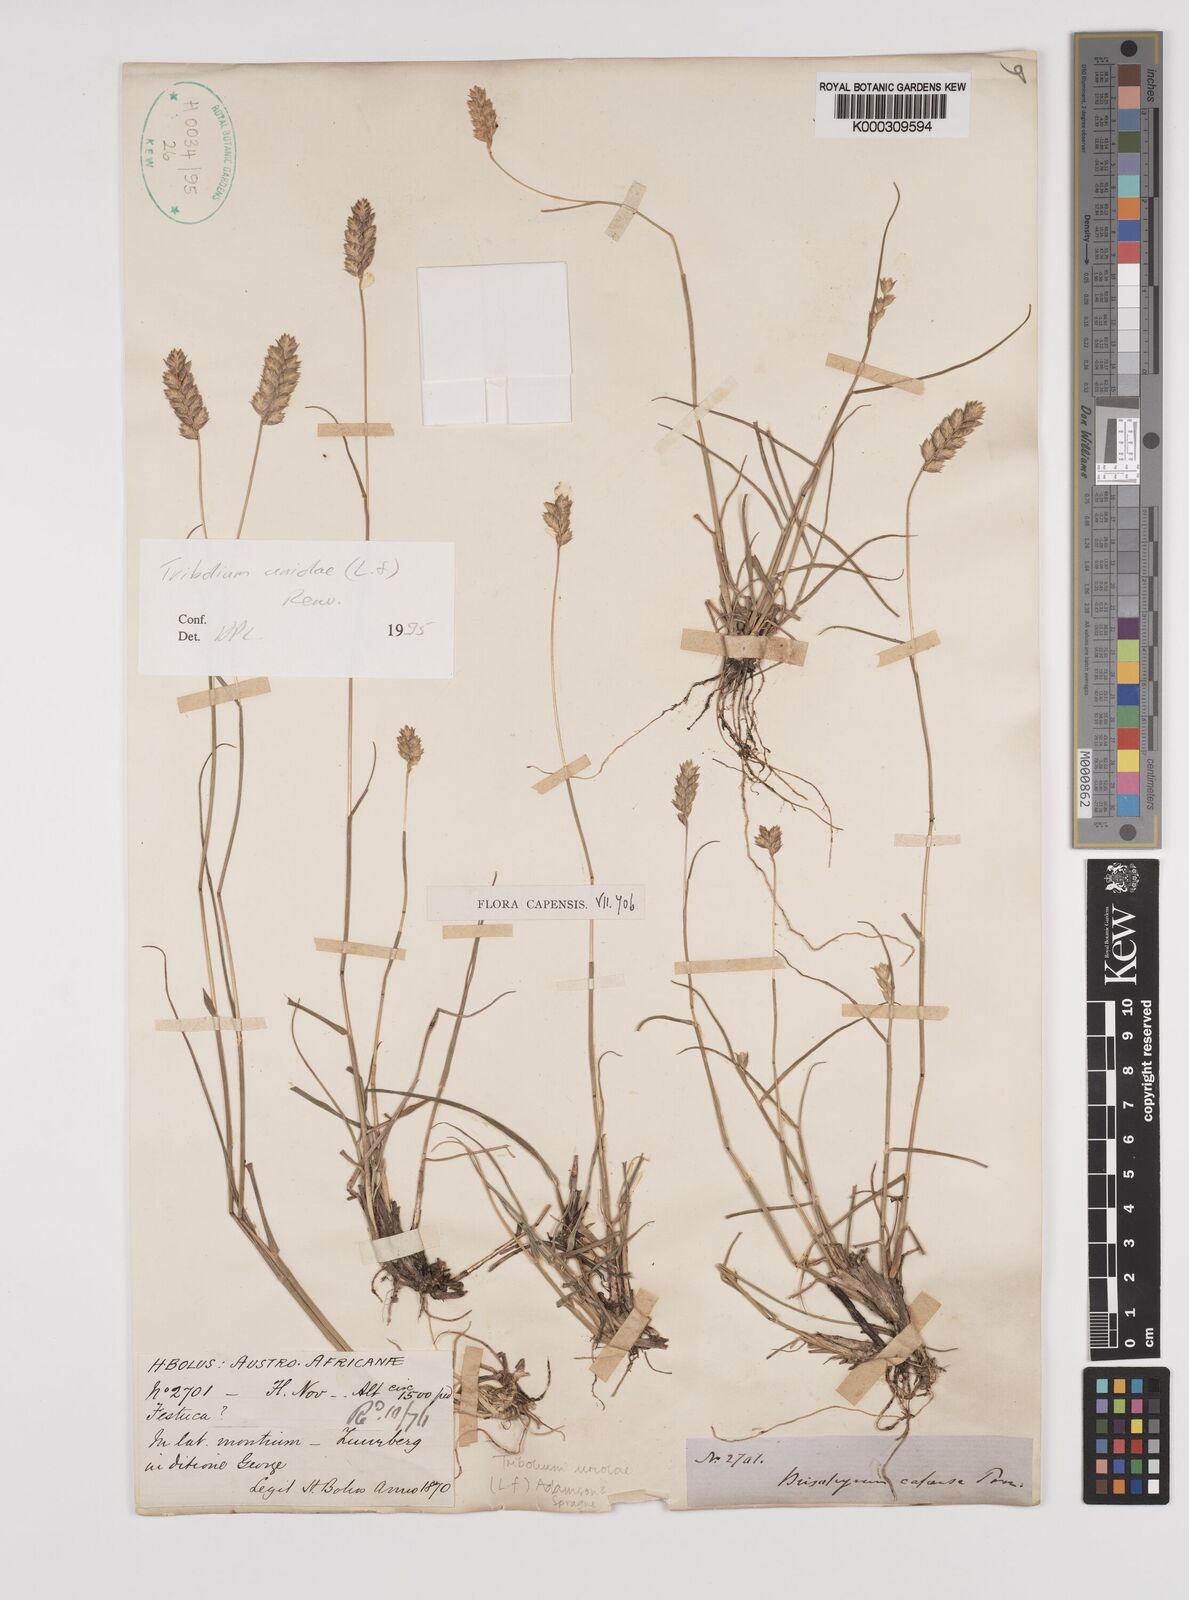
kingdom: Plantae
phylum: Tracheophyta
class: Liliopsida
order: Poales
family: Poaceae
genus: Tribolium
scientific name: Tribolium uniolae
